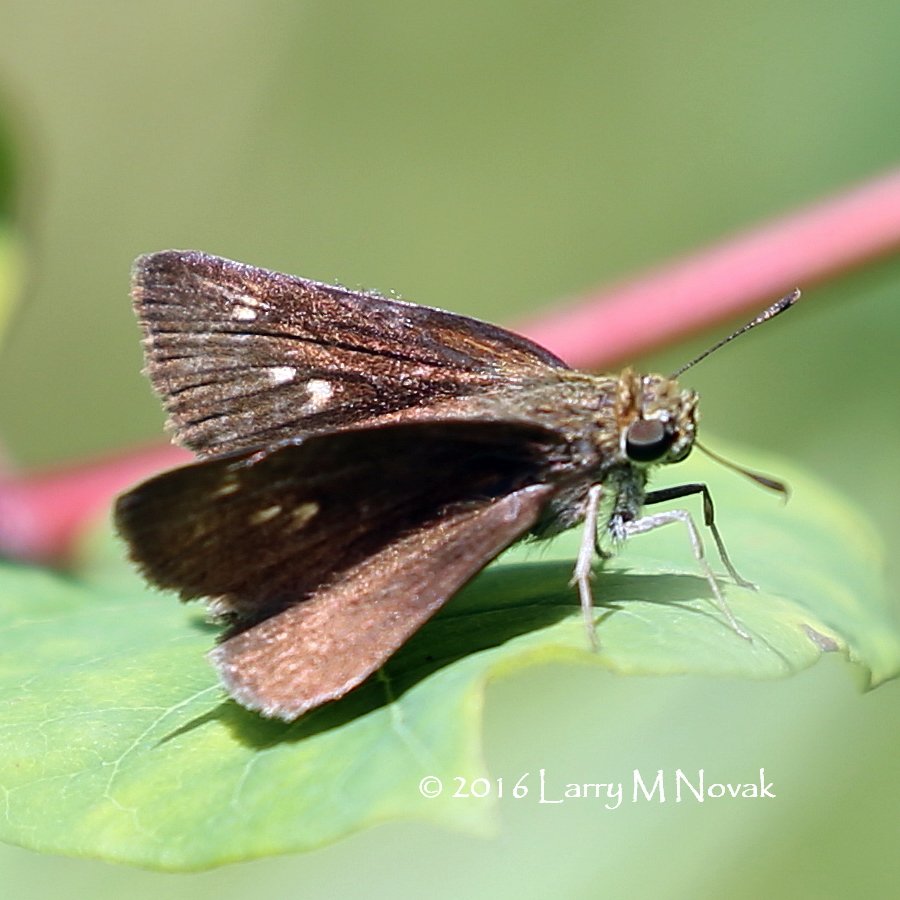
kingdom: Animalia
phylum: Arthropoda
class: Insecta
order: Lepidoptera
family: Hesperiidae
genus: Polites
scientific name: Polites egeremet
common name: Northern Broken-Dash
